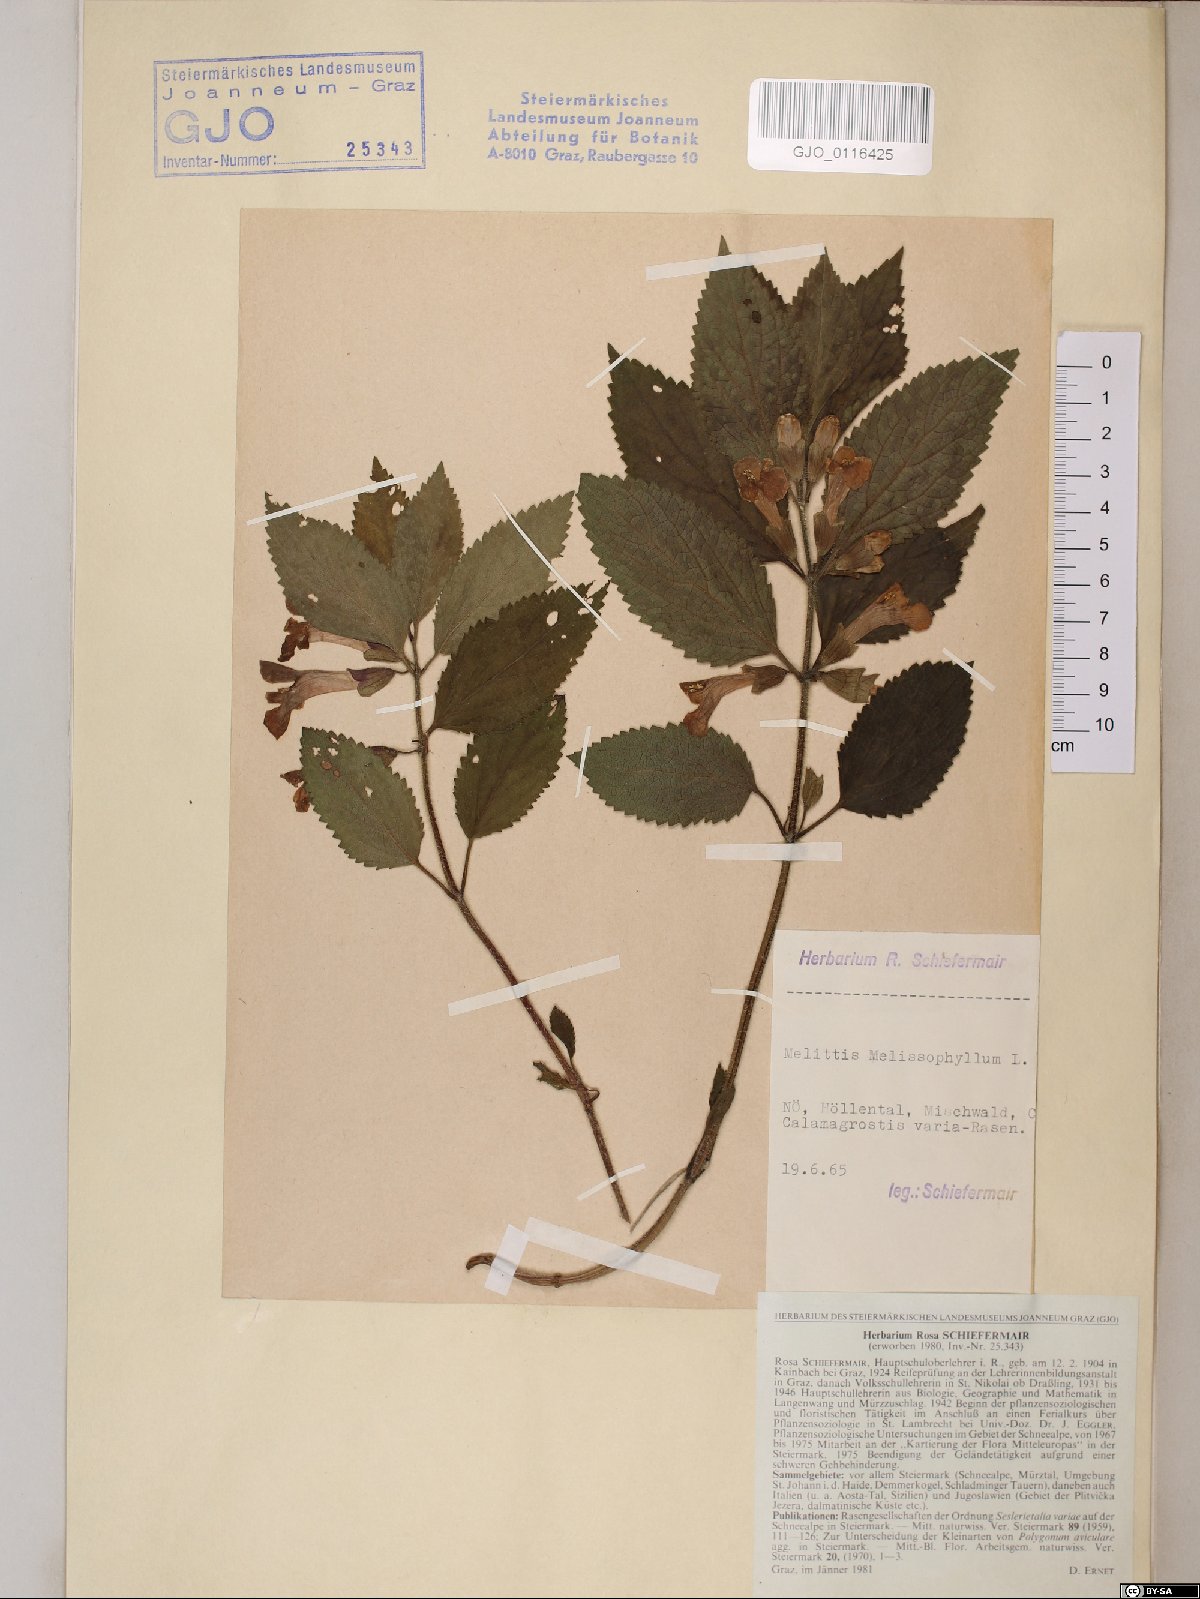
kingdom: Plantae
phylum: Tracheophyta
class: Magnoliopsida
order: Lamiales
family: Lamiaceae
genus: Melittis
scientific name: Melittis melissophyllum
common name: Bastard balm
